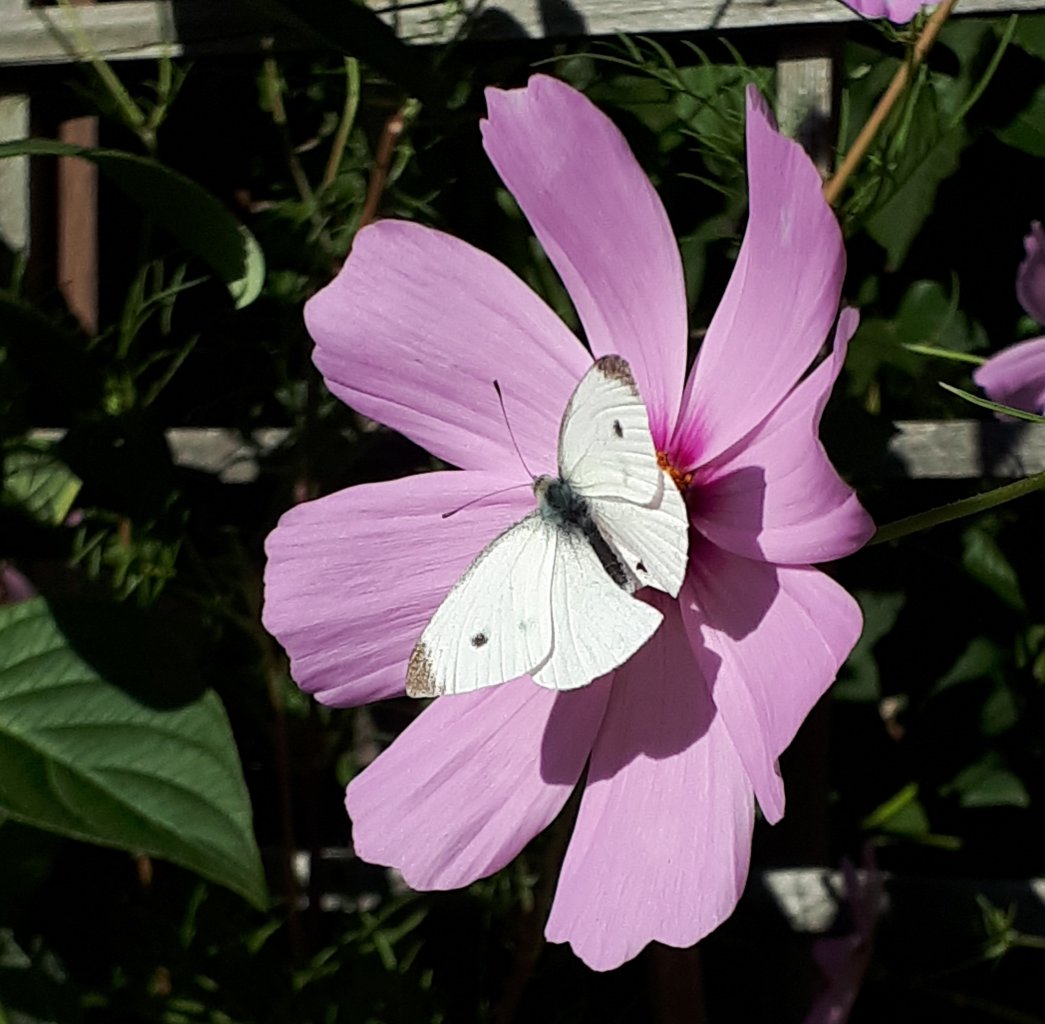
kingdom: Animalia
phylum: Arthropoda
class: Insecta
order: Lepidoptera
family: Pieridae
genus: Pieris
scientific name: Pieris rapae
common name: Cabbage White
